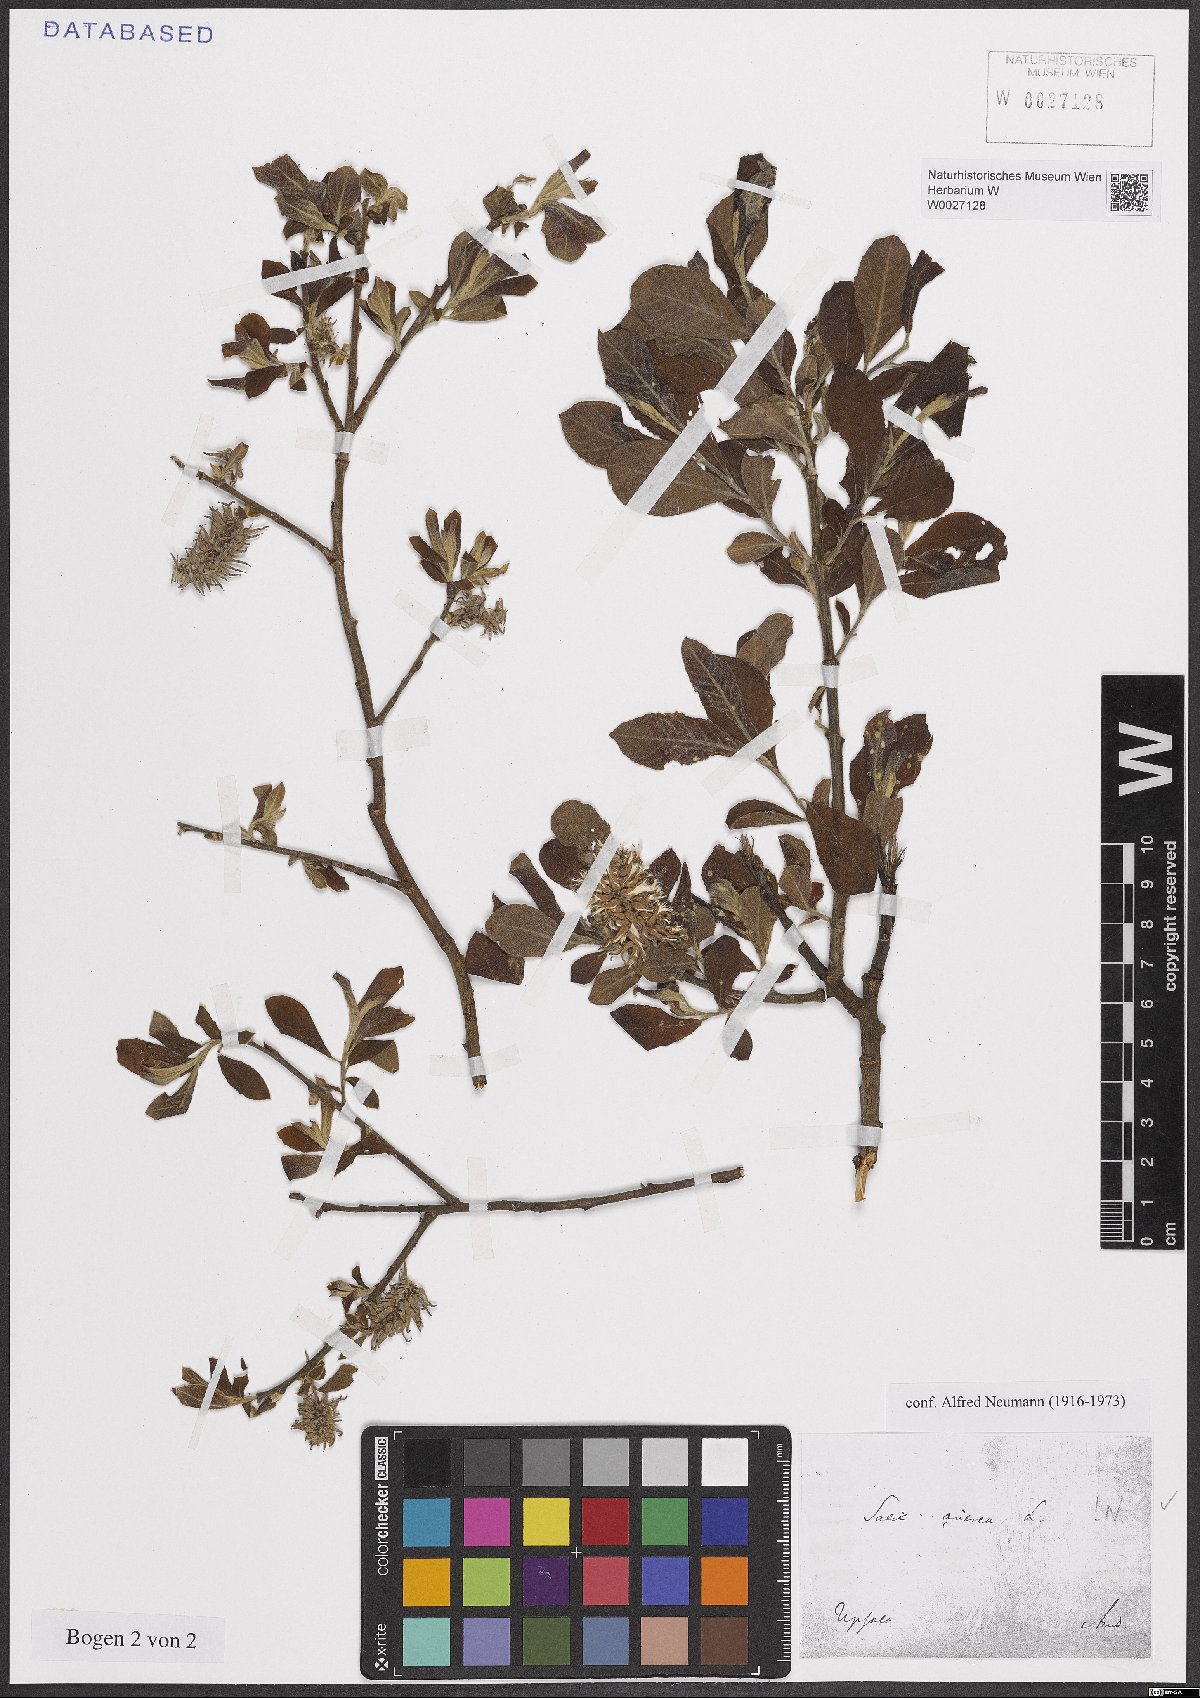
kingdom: Plantae
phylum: Tracheophyta
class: Magnoliopsida
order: Malpighiales
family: Salicaceae
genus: Salix
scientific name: Salix cinerea
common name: Common sallow
